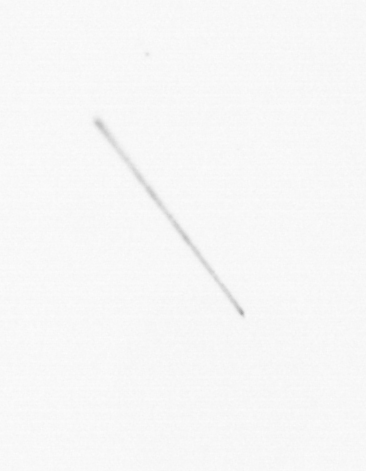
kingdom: Chromista
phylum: Ochrophyta
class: Bacillariophyceae
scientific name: Bacillariophyceae
